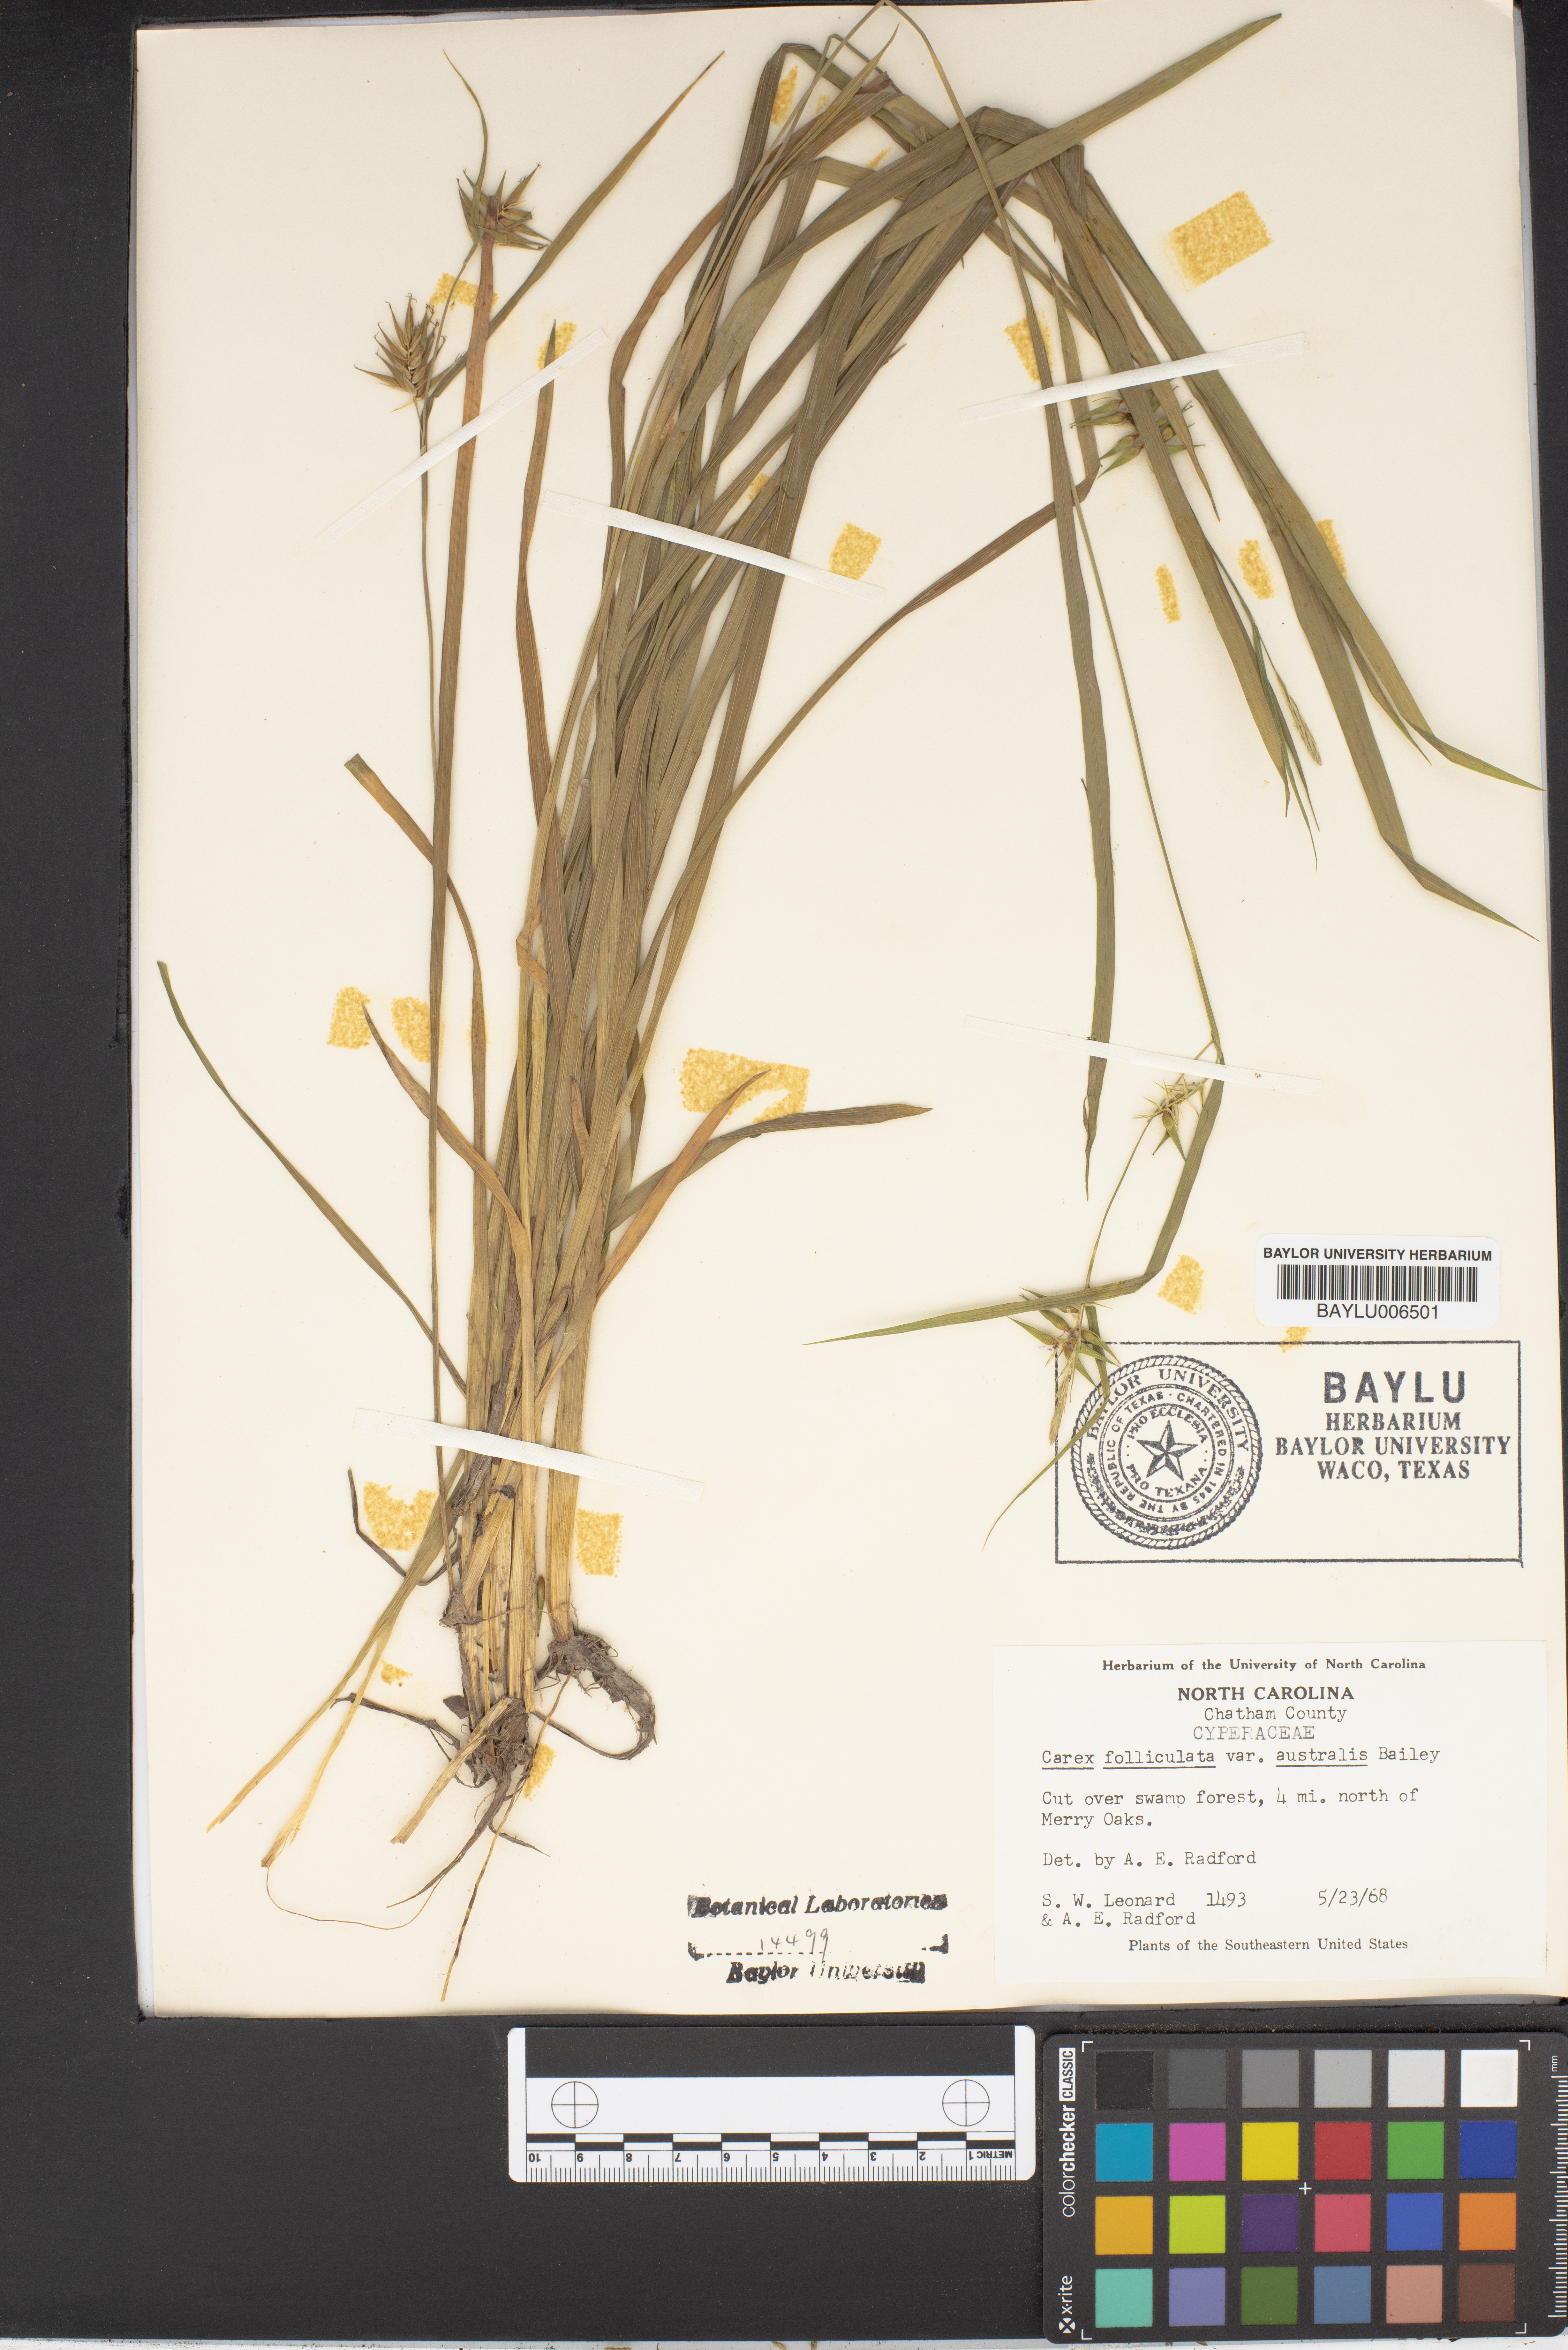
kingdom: Plantae
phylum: Tracheophyta
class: Liliopsida
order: Poales
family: Cyperaceae
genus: Carex
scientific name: Carex lonchocarpa
